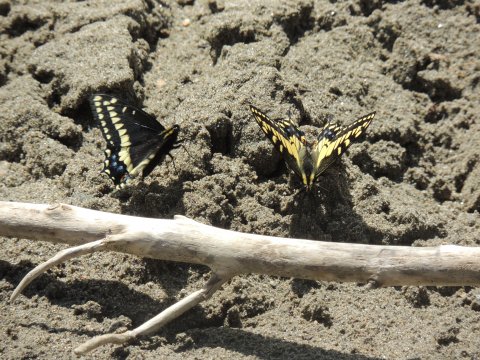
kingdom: Animalia
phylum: Arthropoda
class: Insecta
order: Lepidoptera
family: Papilionidae
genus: Papilio
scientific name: Papilio indra
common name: Indra Swallowtail
